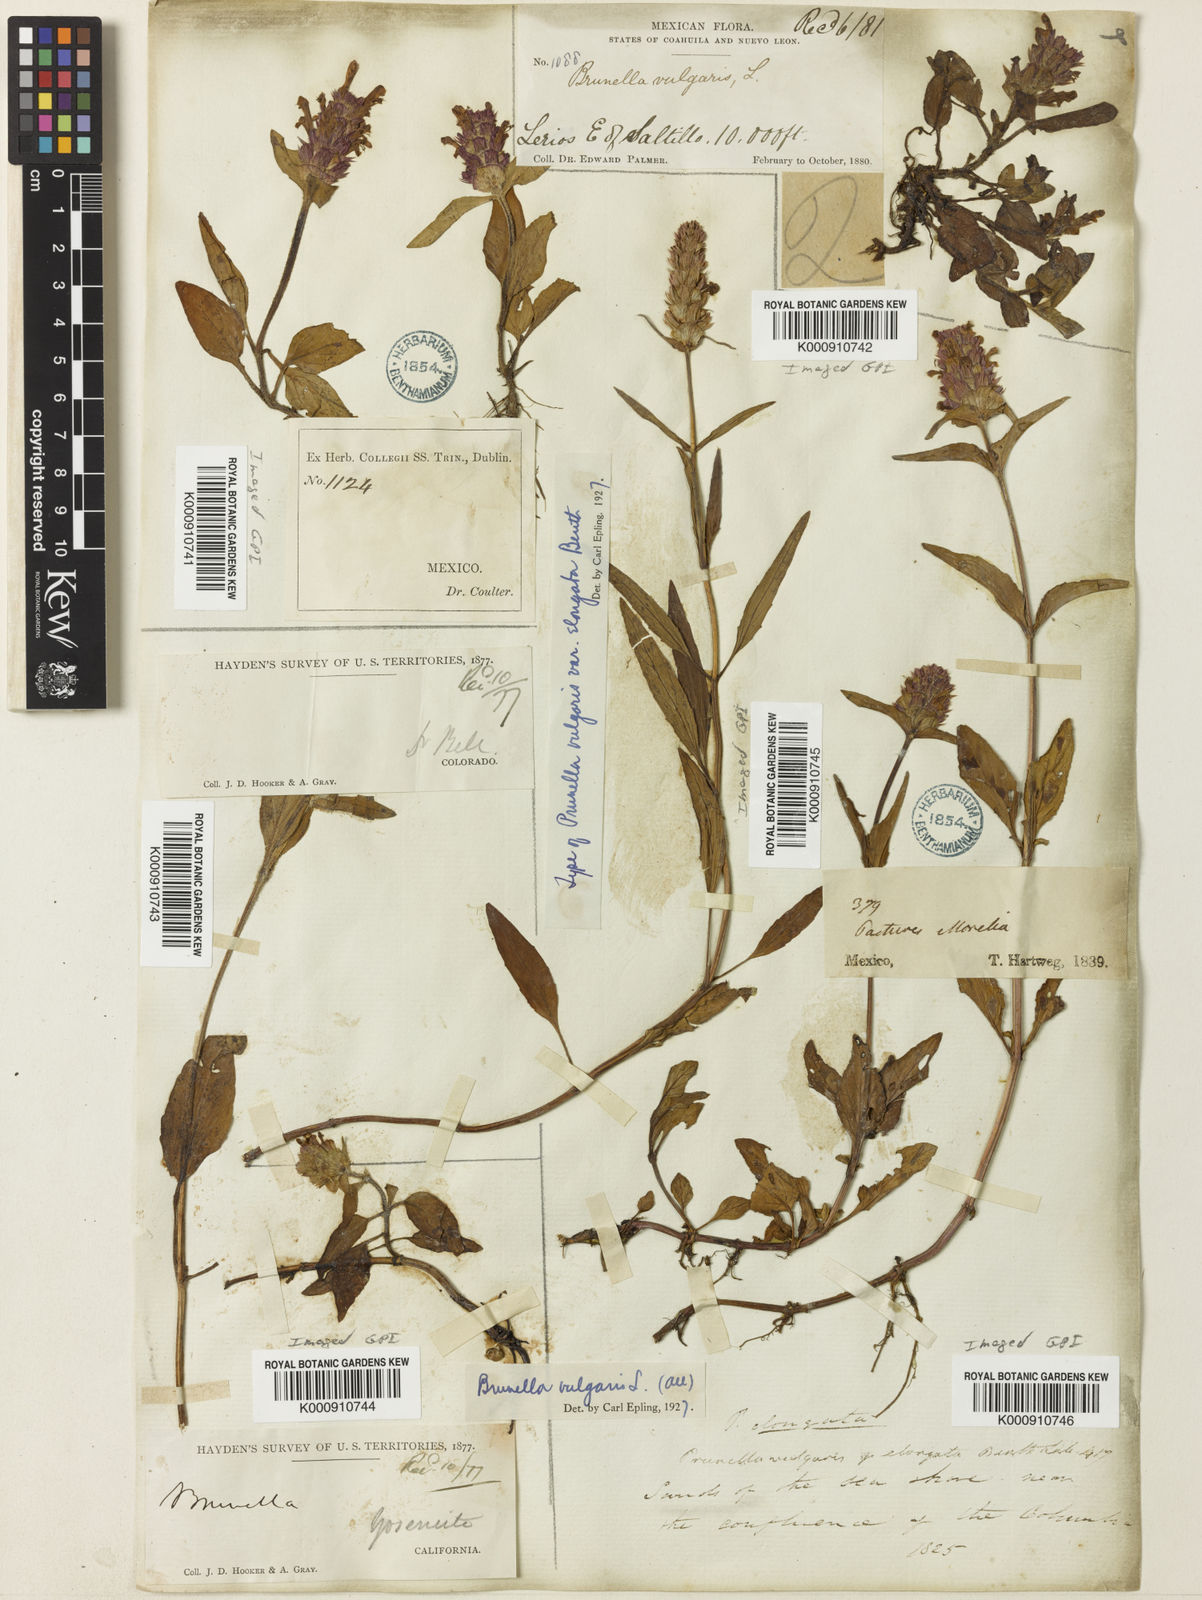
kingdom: Plantae
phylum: Tracheophyta
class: Magnoliopsida
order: Lamiales
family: Lamiaceae
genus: Prunella
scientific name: Prunella vulgaris
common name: Heal-all
